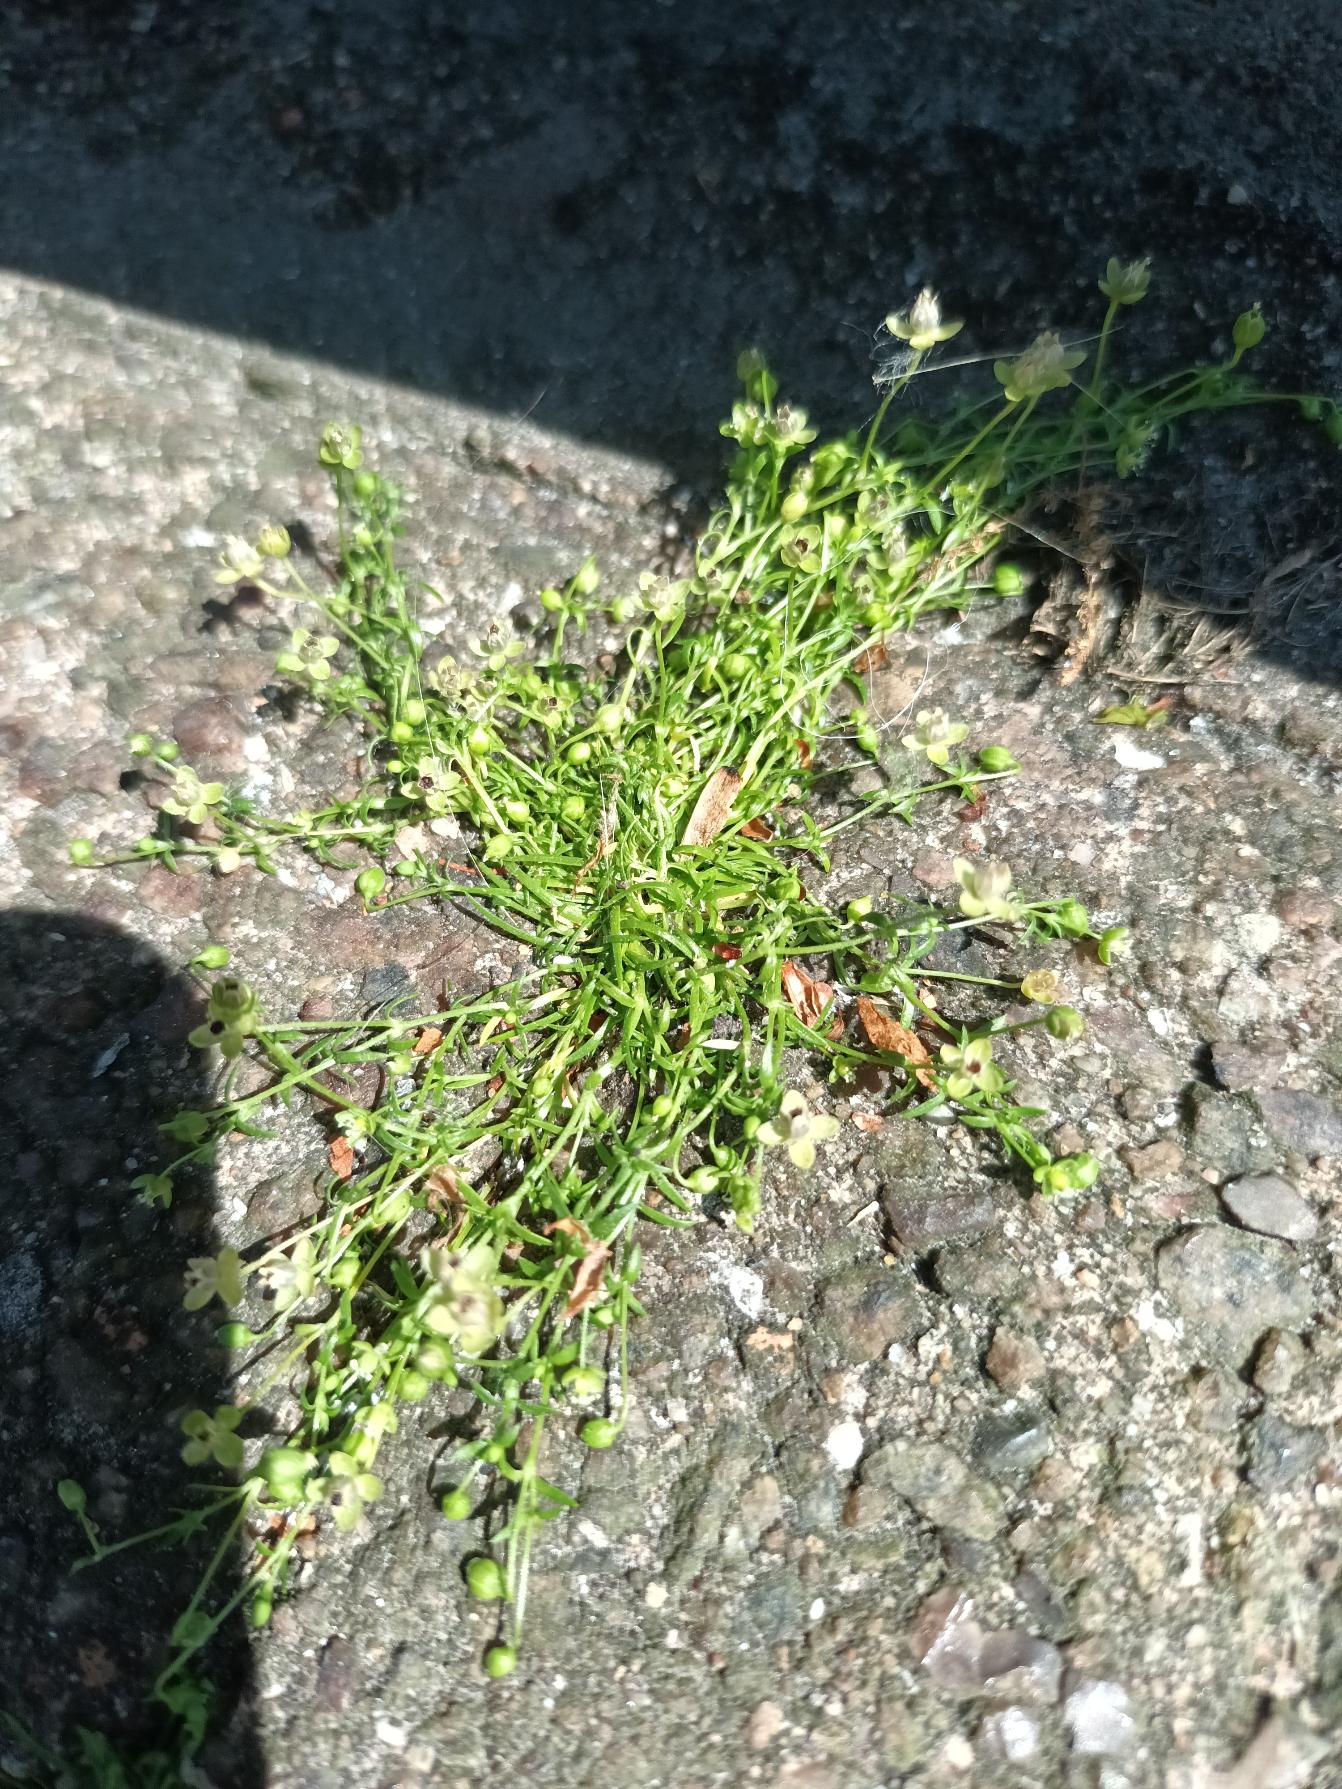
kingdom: Plantae
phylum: Tracheophyta
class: Magnoliopsida
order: Caryophyllales
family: Caryophyllaceae
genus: Sagina
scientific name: Sagina procumbens
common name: Almindelig firling
